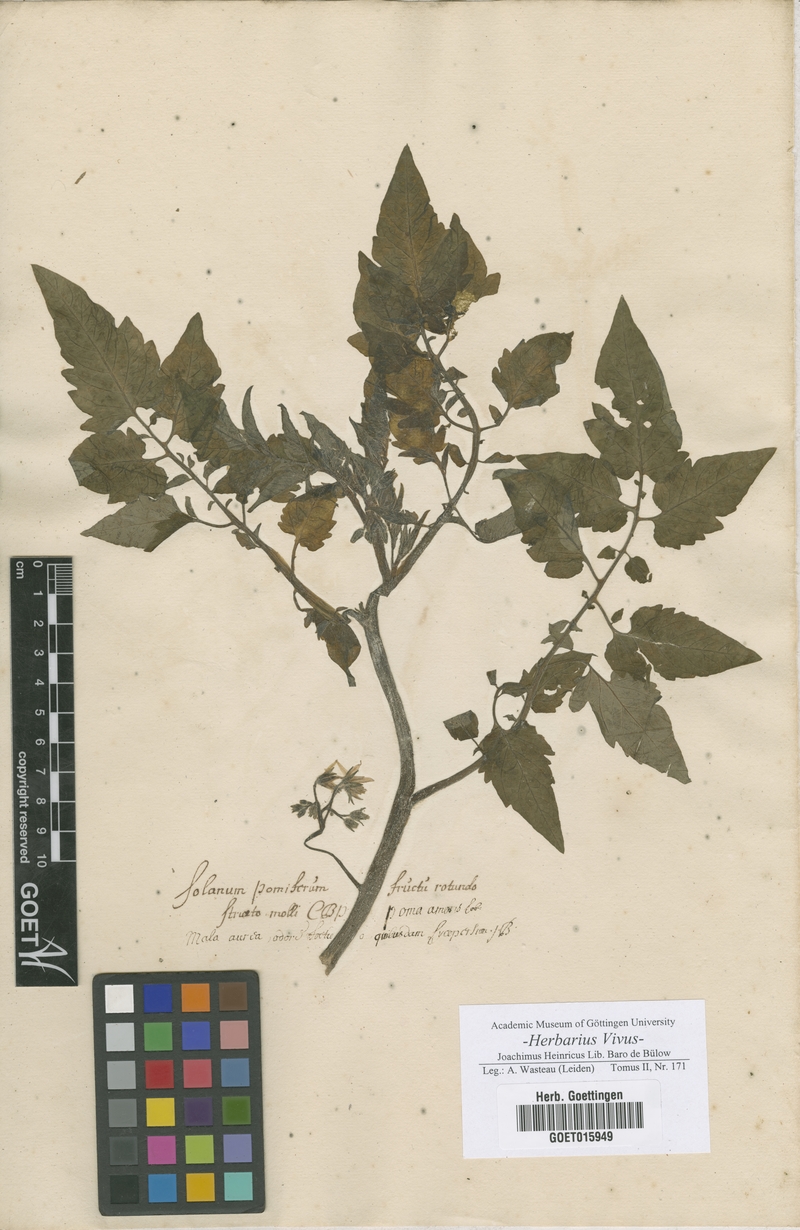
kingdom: Plantae
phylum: Tracheophyta
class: Magnoliopsida
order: Solanales
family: Solanaceae
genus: Solanum
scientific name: Solanum
